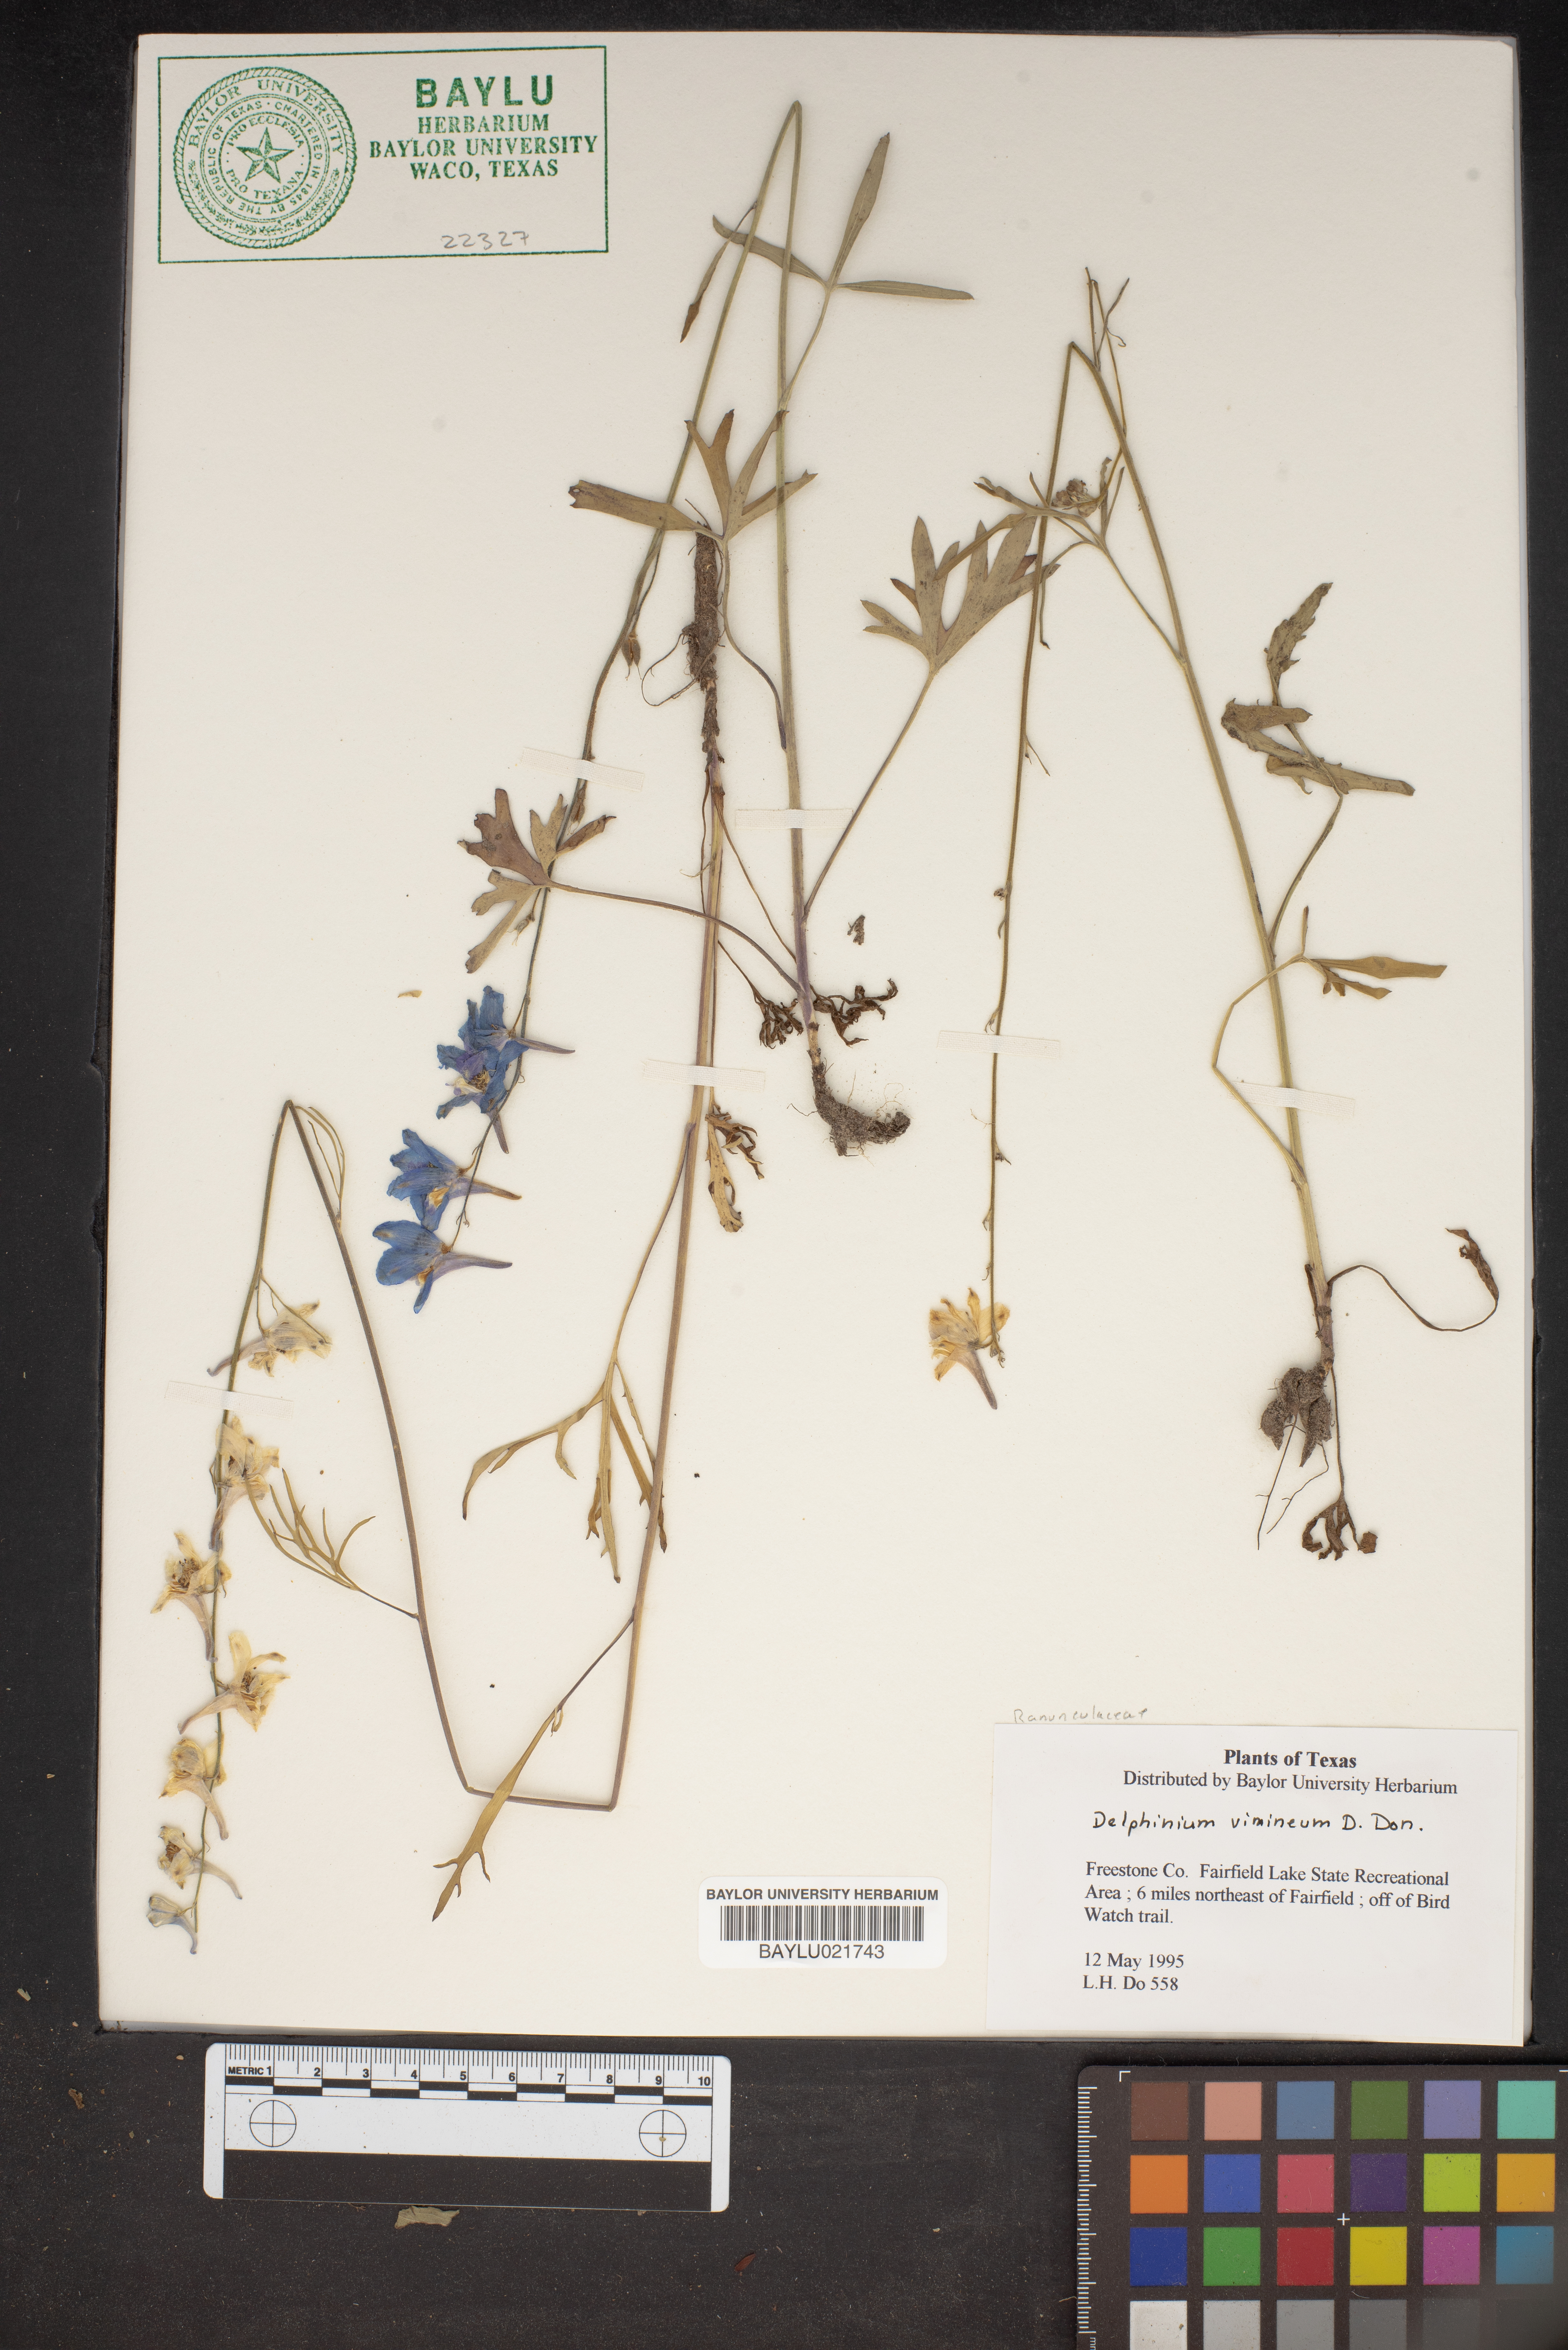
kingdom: Plantae
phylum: Tracheophyta
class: Magnoliopsida
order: Ranunculales
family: Ranunculaceae
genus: Delphinium
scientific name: Delphinium carolinianum
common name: Carolina larkspur
